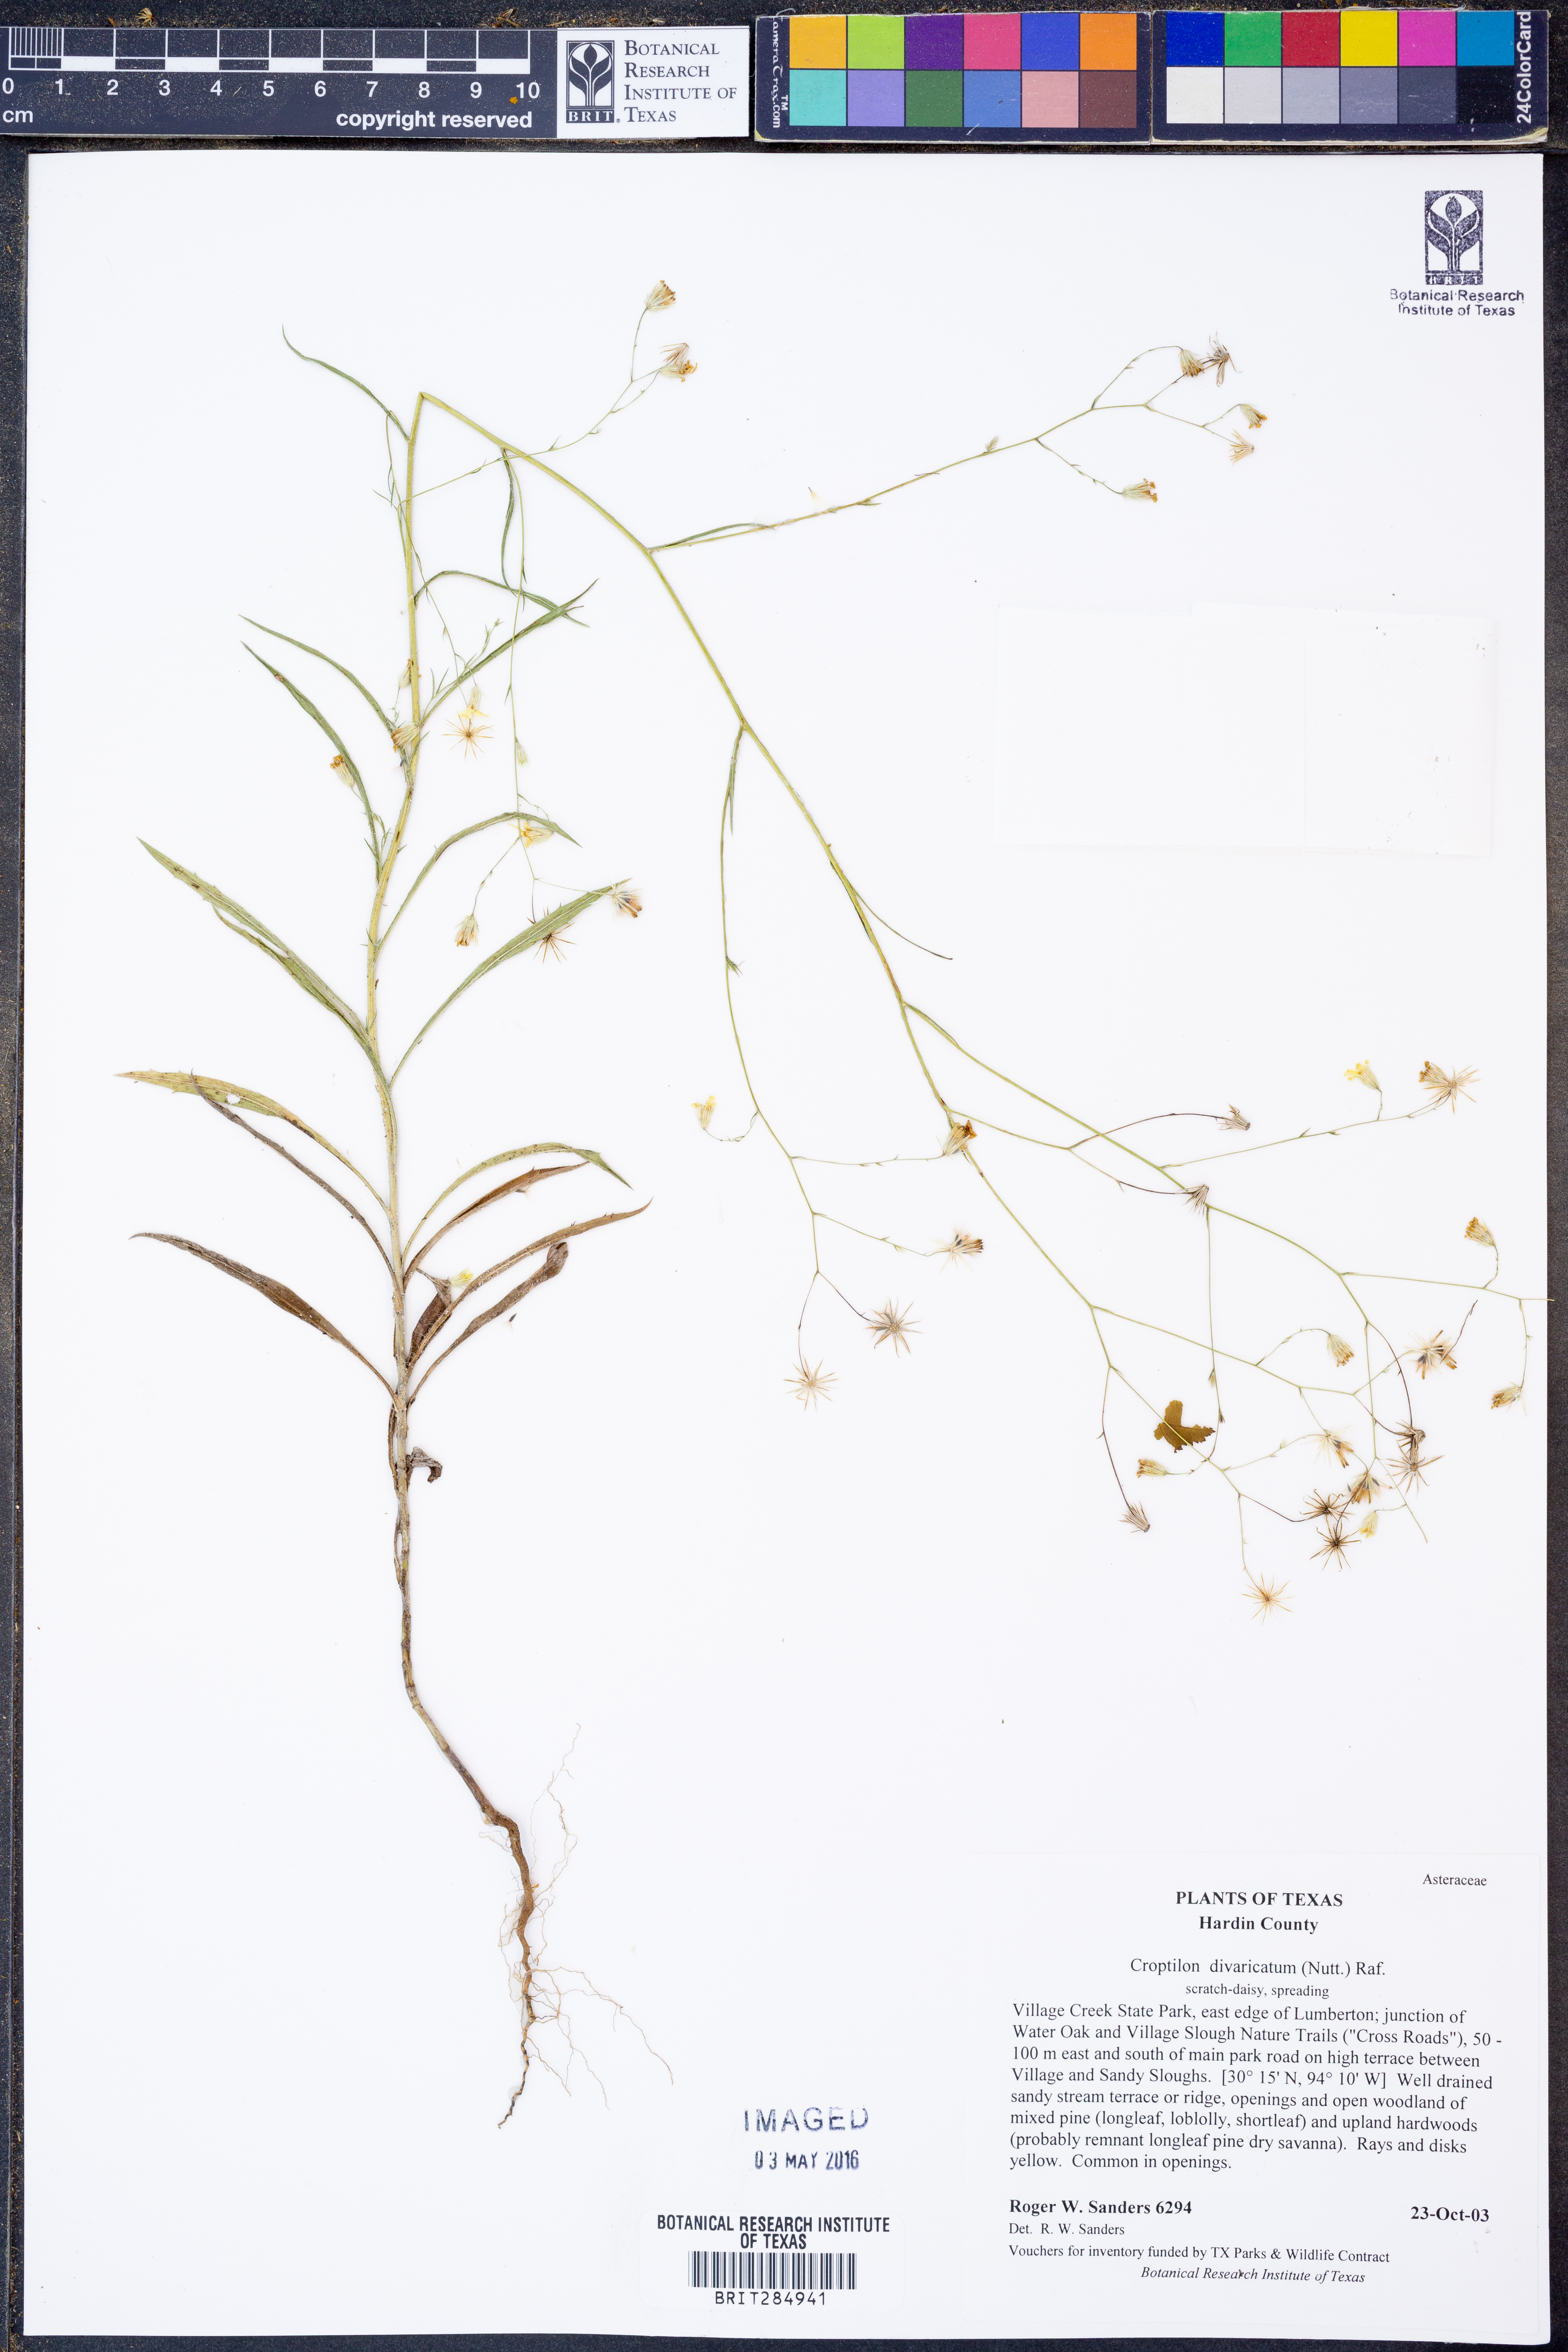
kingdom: Plantae
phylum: Tracheophyta
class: Magnoliopsida
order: Asterales
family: Asteraceae
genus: Croptilon
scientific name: Croptilon divaricatum
